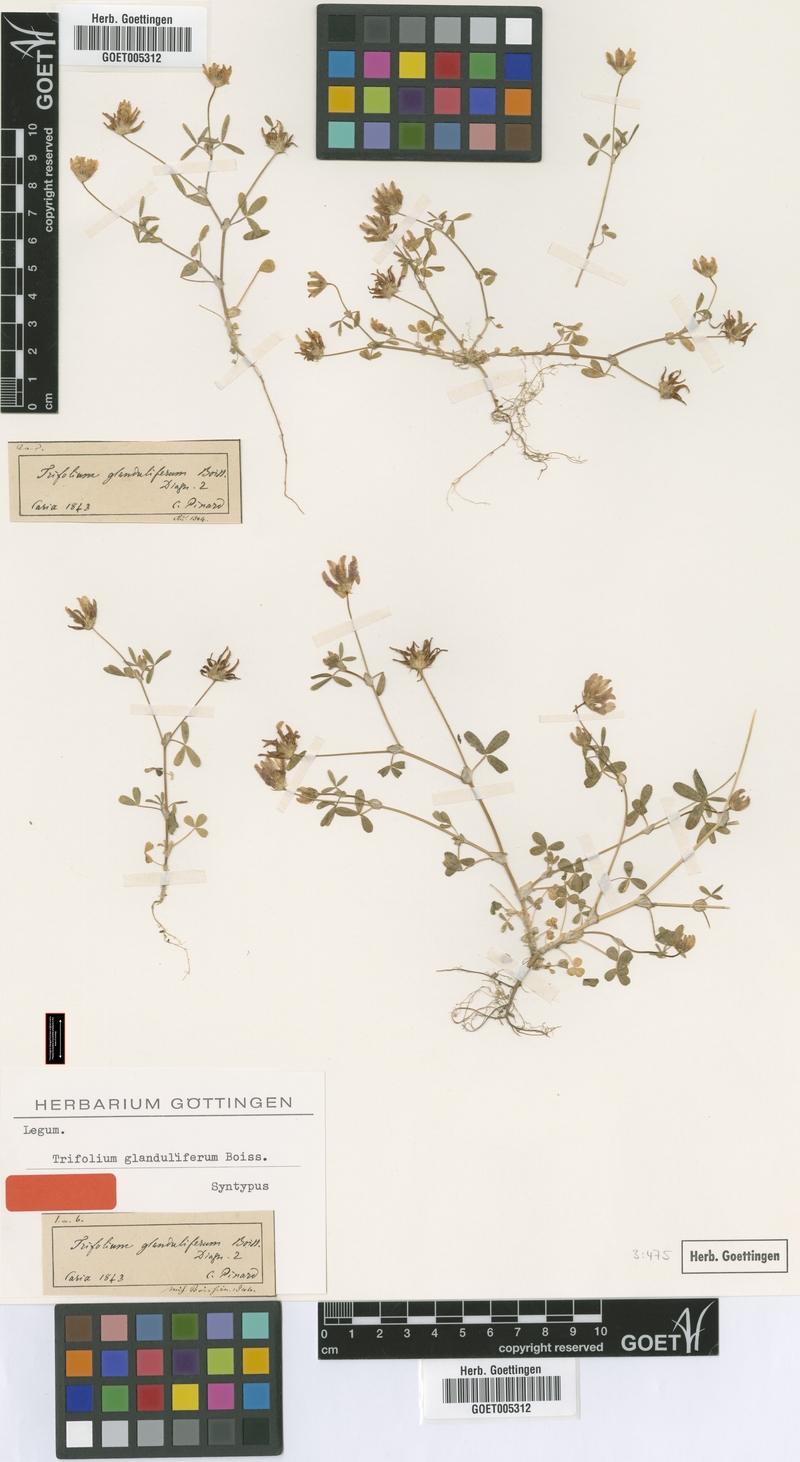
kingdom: Plantae
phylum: Tracheophyta
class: Magnoliopsida
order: Fabales
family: Fabaceae
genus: Trifolium
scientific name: Trifolium glanduliferum
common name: Glandular clover
